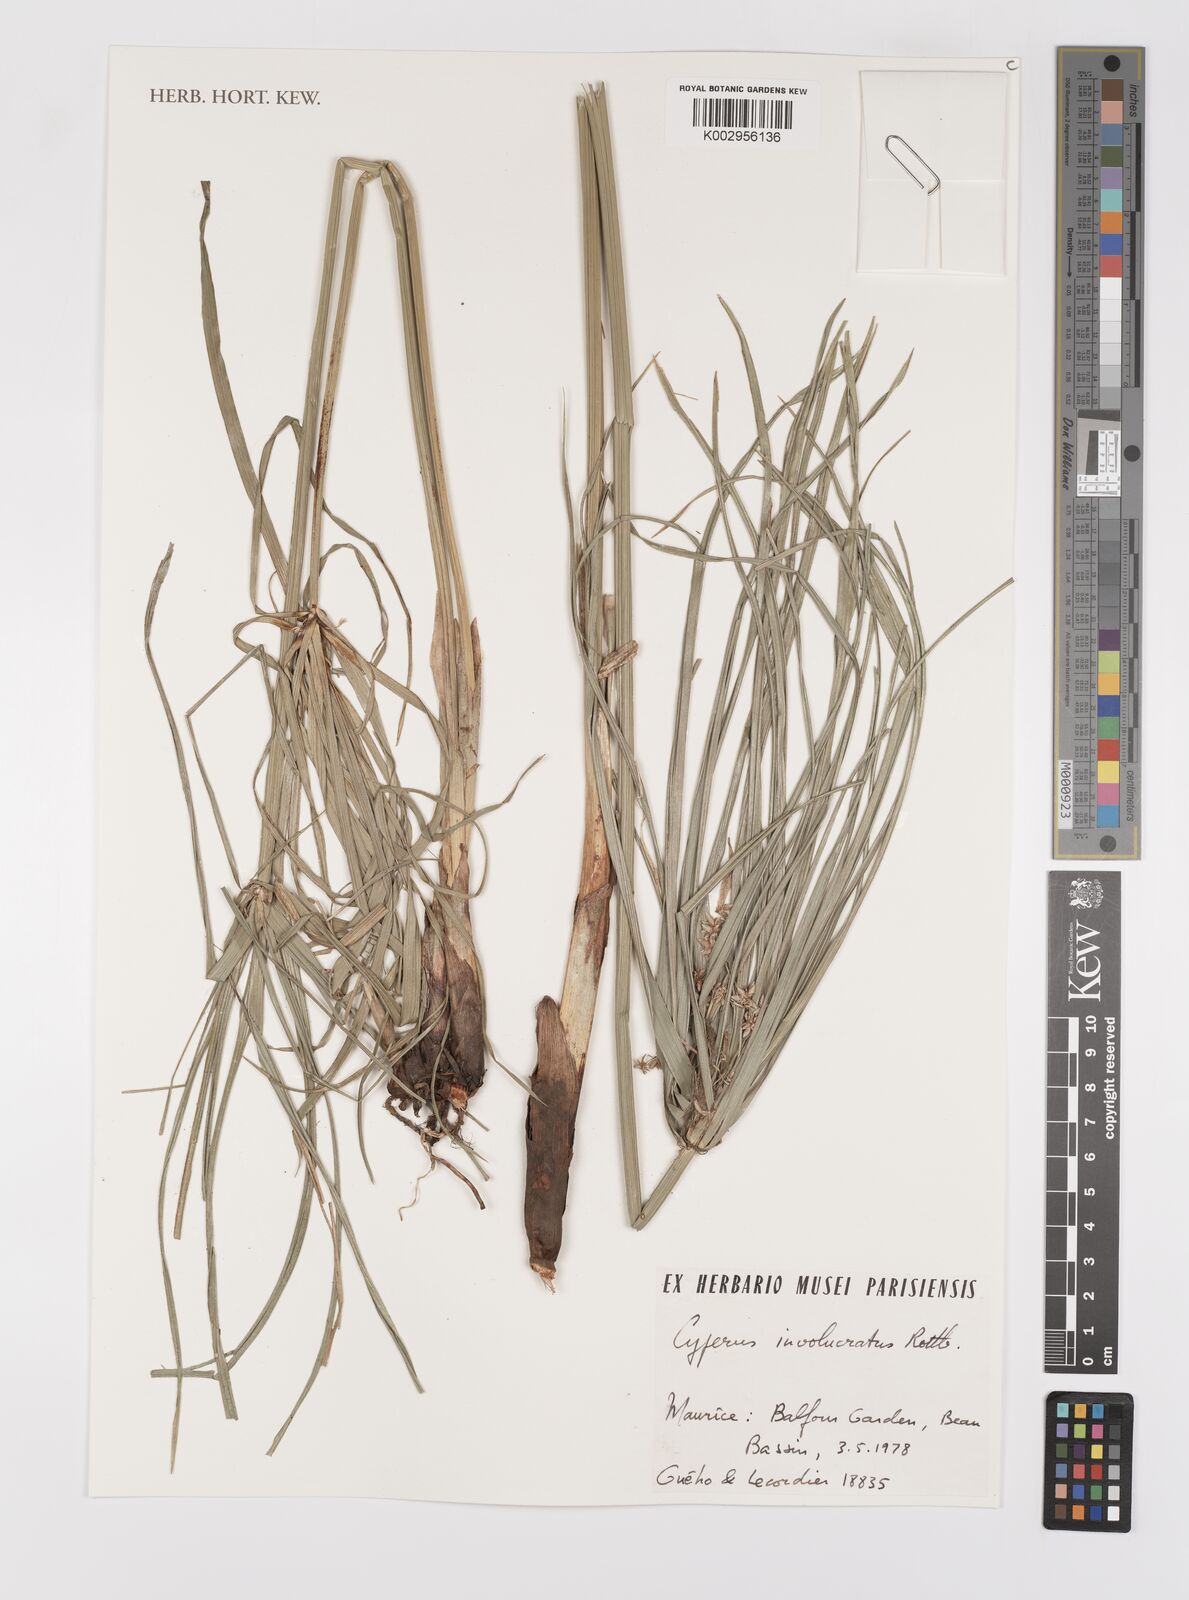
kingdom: Plantae
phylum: Tracheophyta
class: Liliopsida
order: Poales
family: Cyperaceae
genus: Cyperus
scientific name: Cyperus alternifolius
